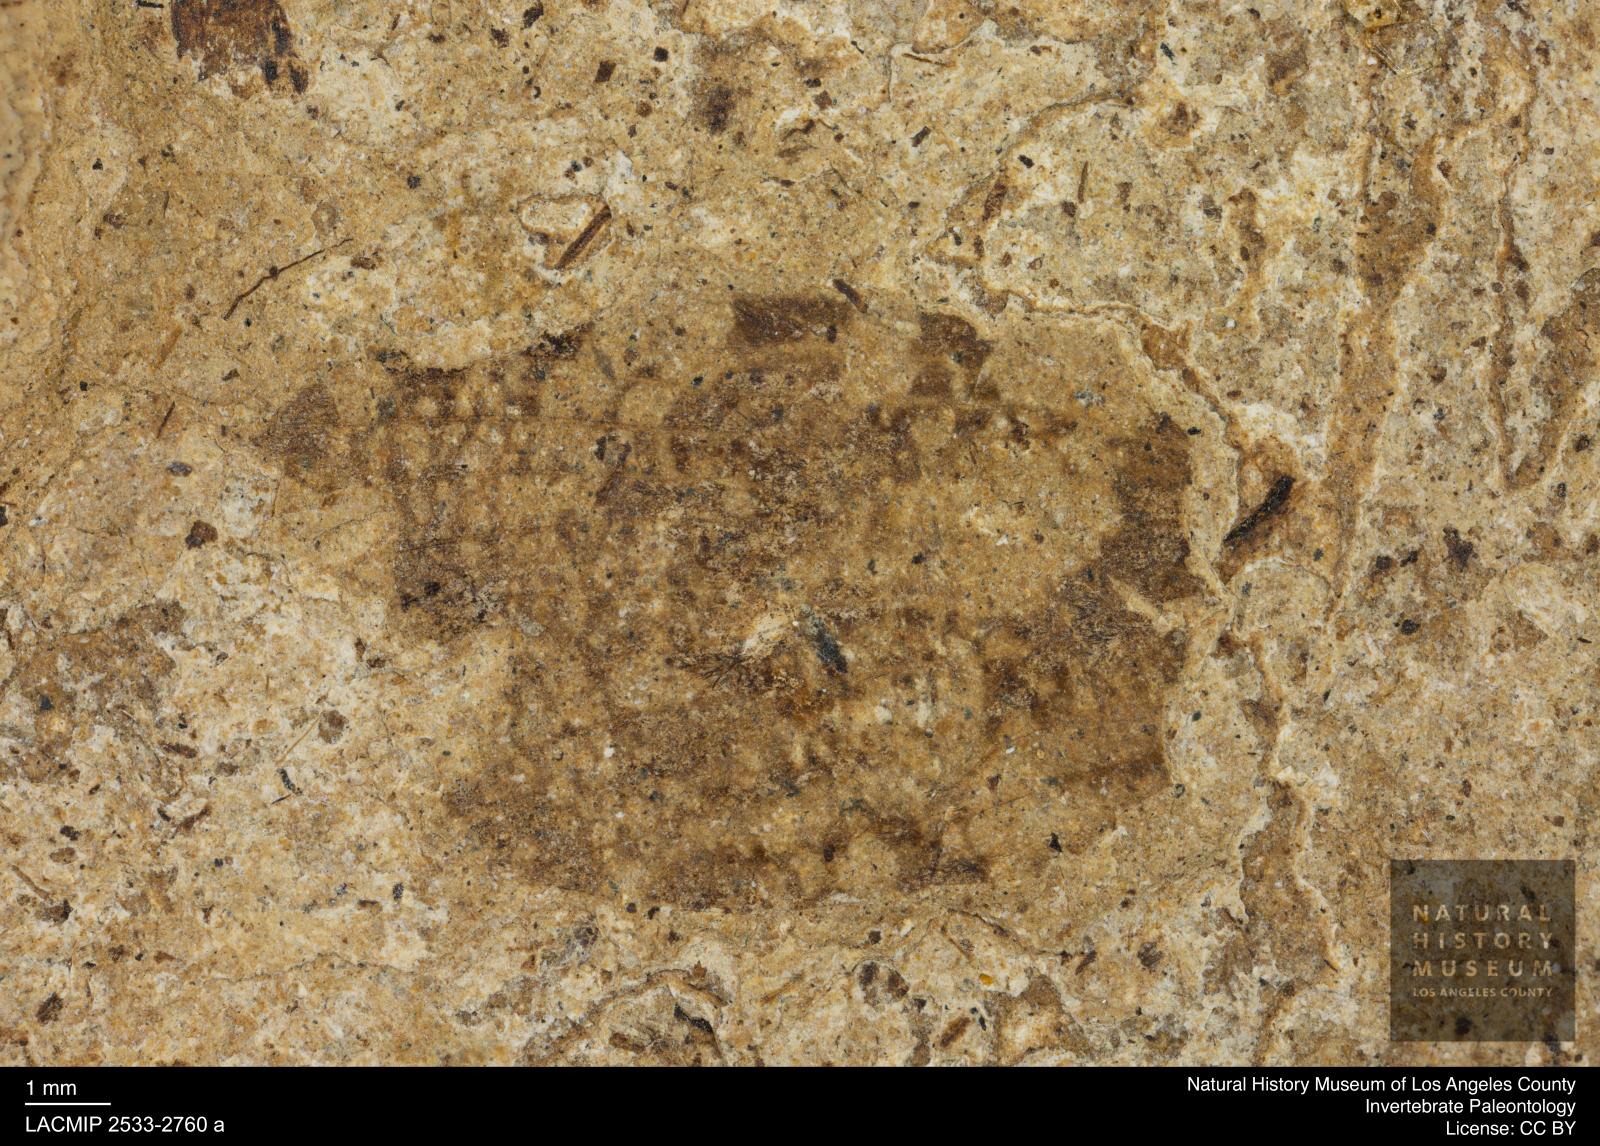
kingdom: Animalia
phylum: Arthropoda
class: Insecta
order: Trichoptera
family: Phryganeidae
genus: Phryganea
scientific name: Phryganea
